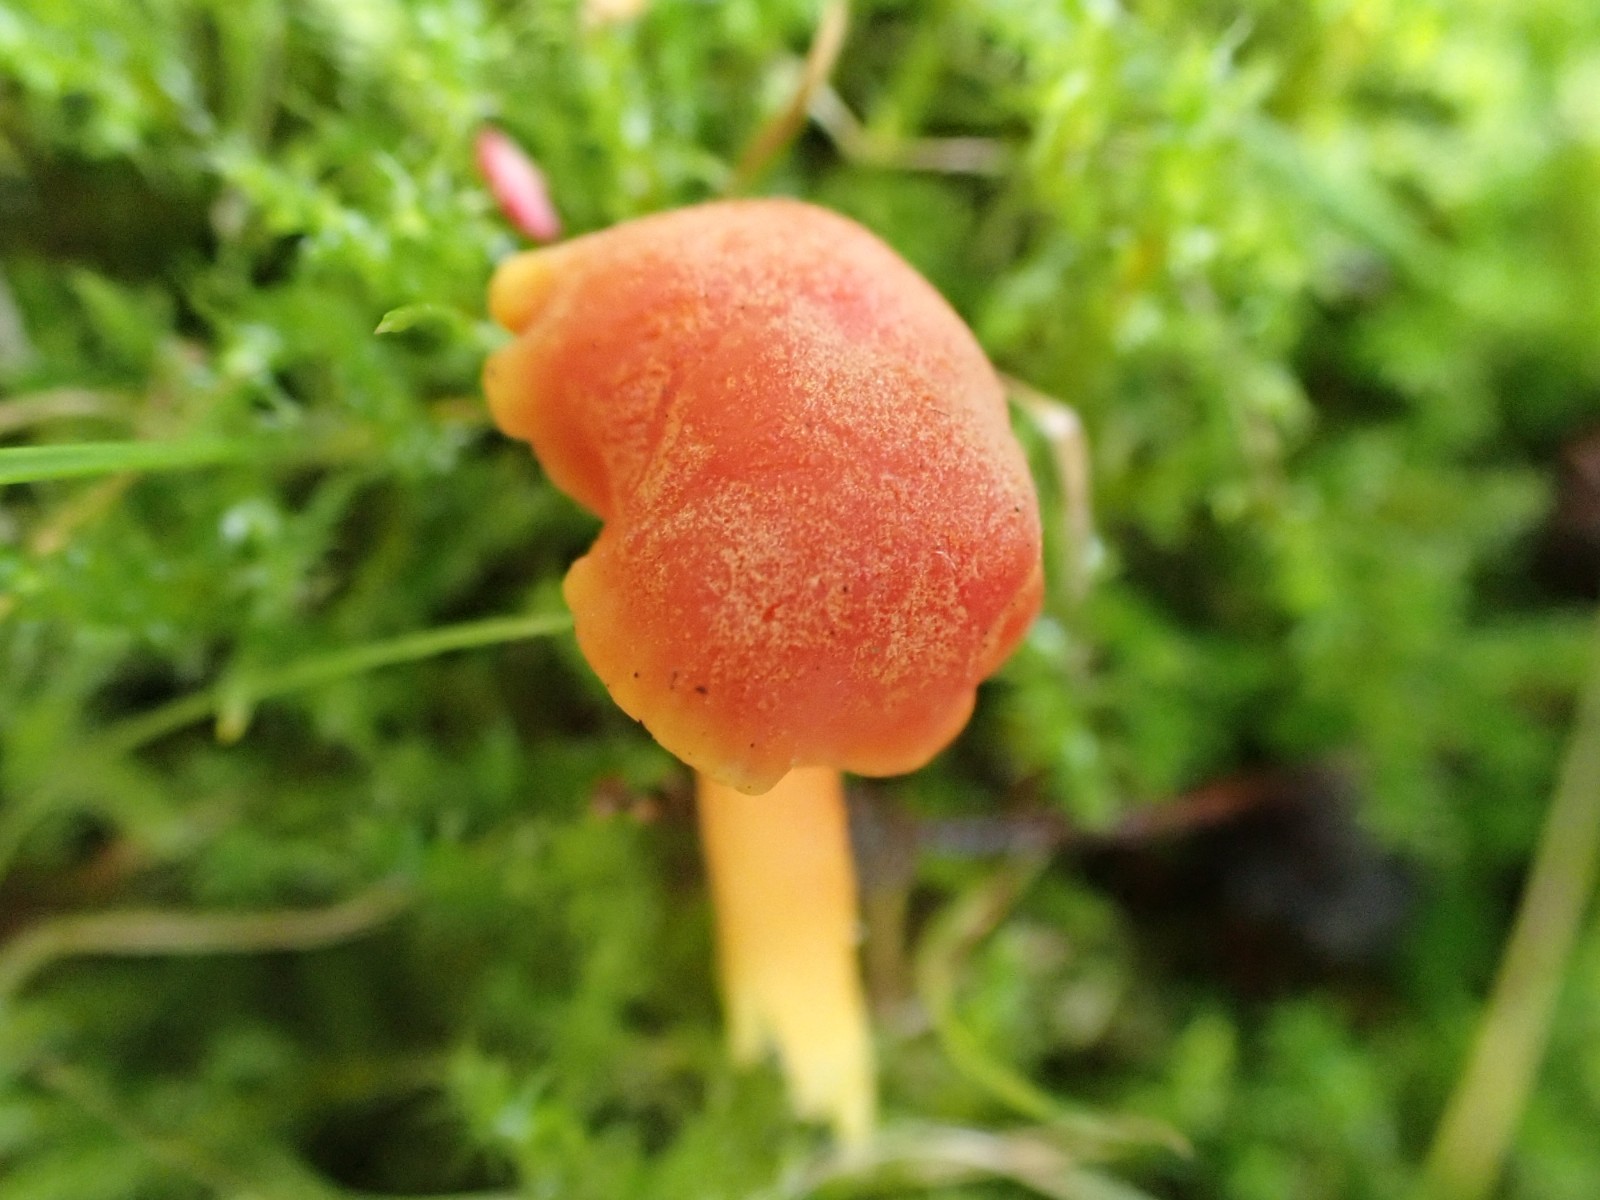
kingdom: Fungi
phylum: Basidiomycota
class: Agaricomycetes
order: Agaricales
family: Hygrophoraceae
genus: Hygrocybe
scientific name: Hygrocybe reidii
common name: honning-vokshat
